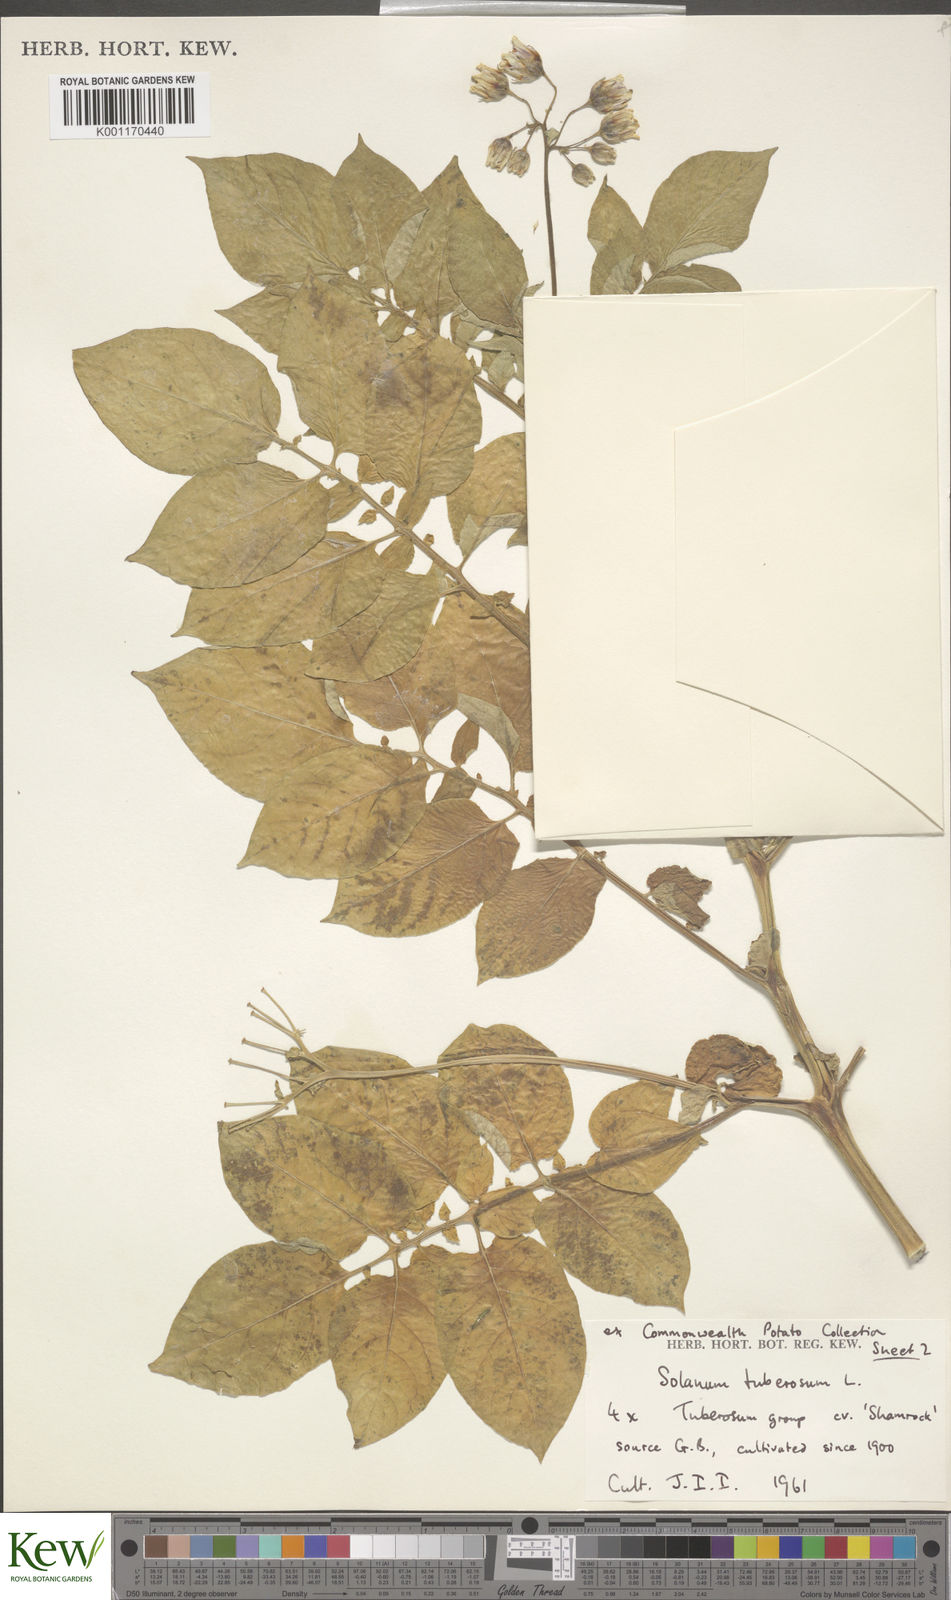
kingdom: Plantae
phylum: Tracheophyta
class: Magnoliopsida
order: Solanales
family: Solanaceae
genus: Solanum
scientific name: Solanum tuberosum
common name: Potato
